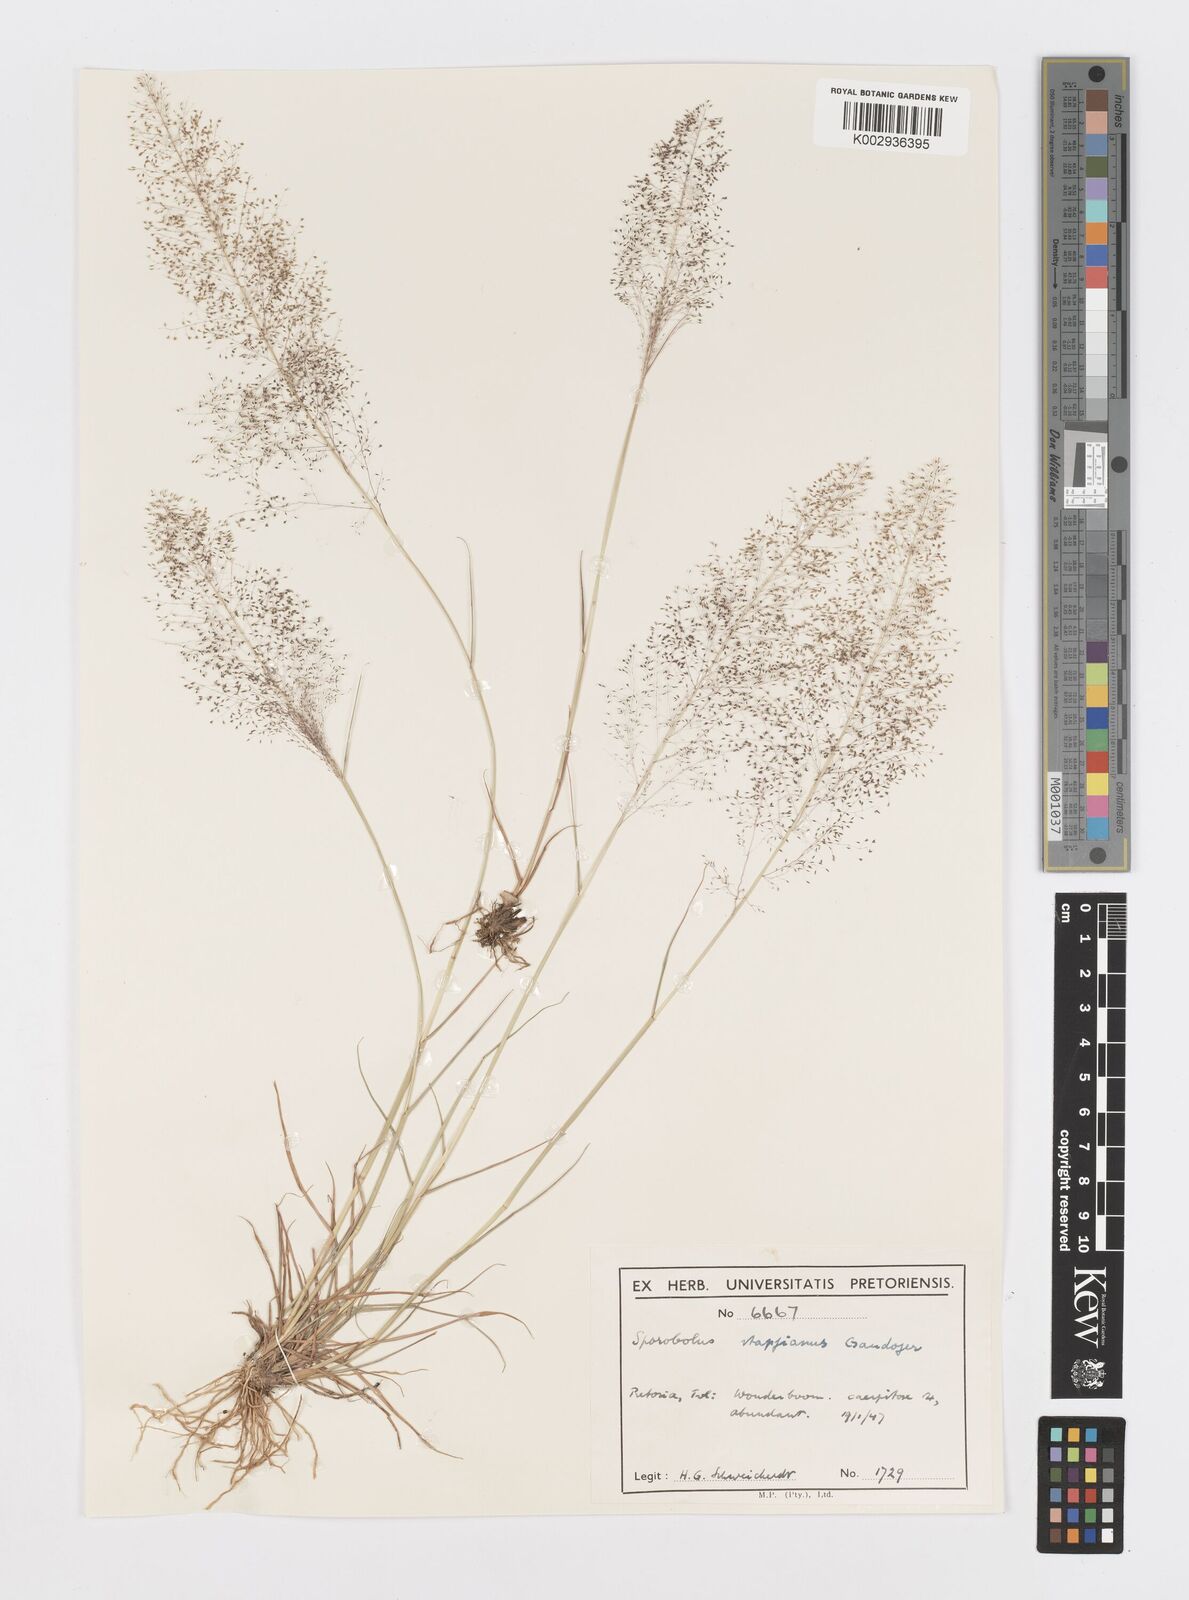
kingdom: Plantae
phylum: Tracheophyta
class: Liliopsida
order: Poales
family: Poaceae
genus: Sporobolus
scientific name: Sporobolus stapfianus
